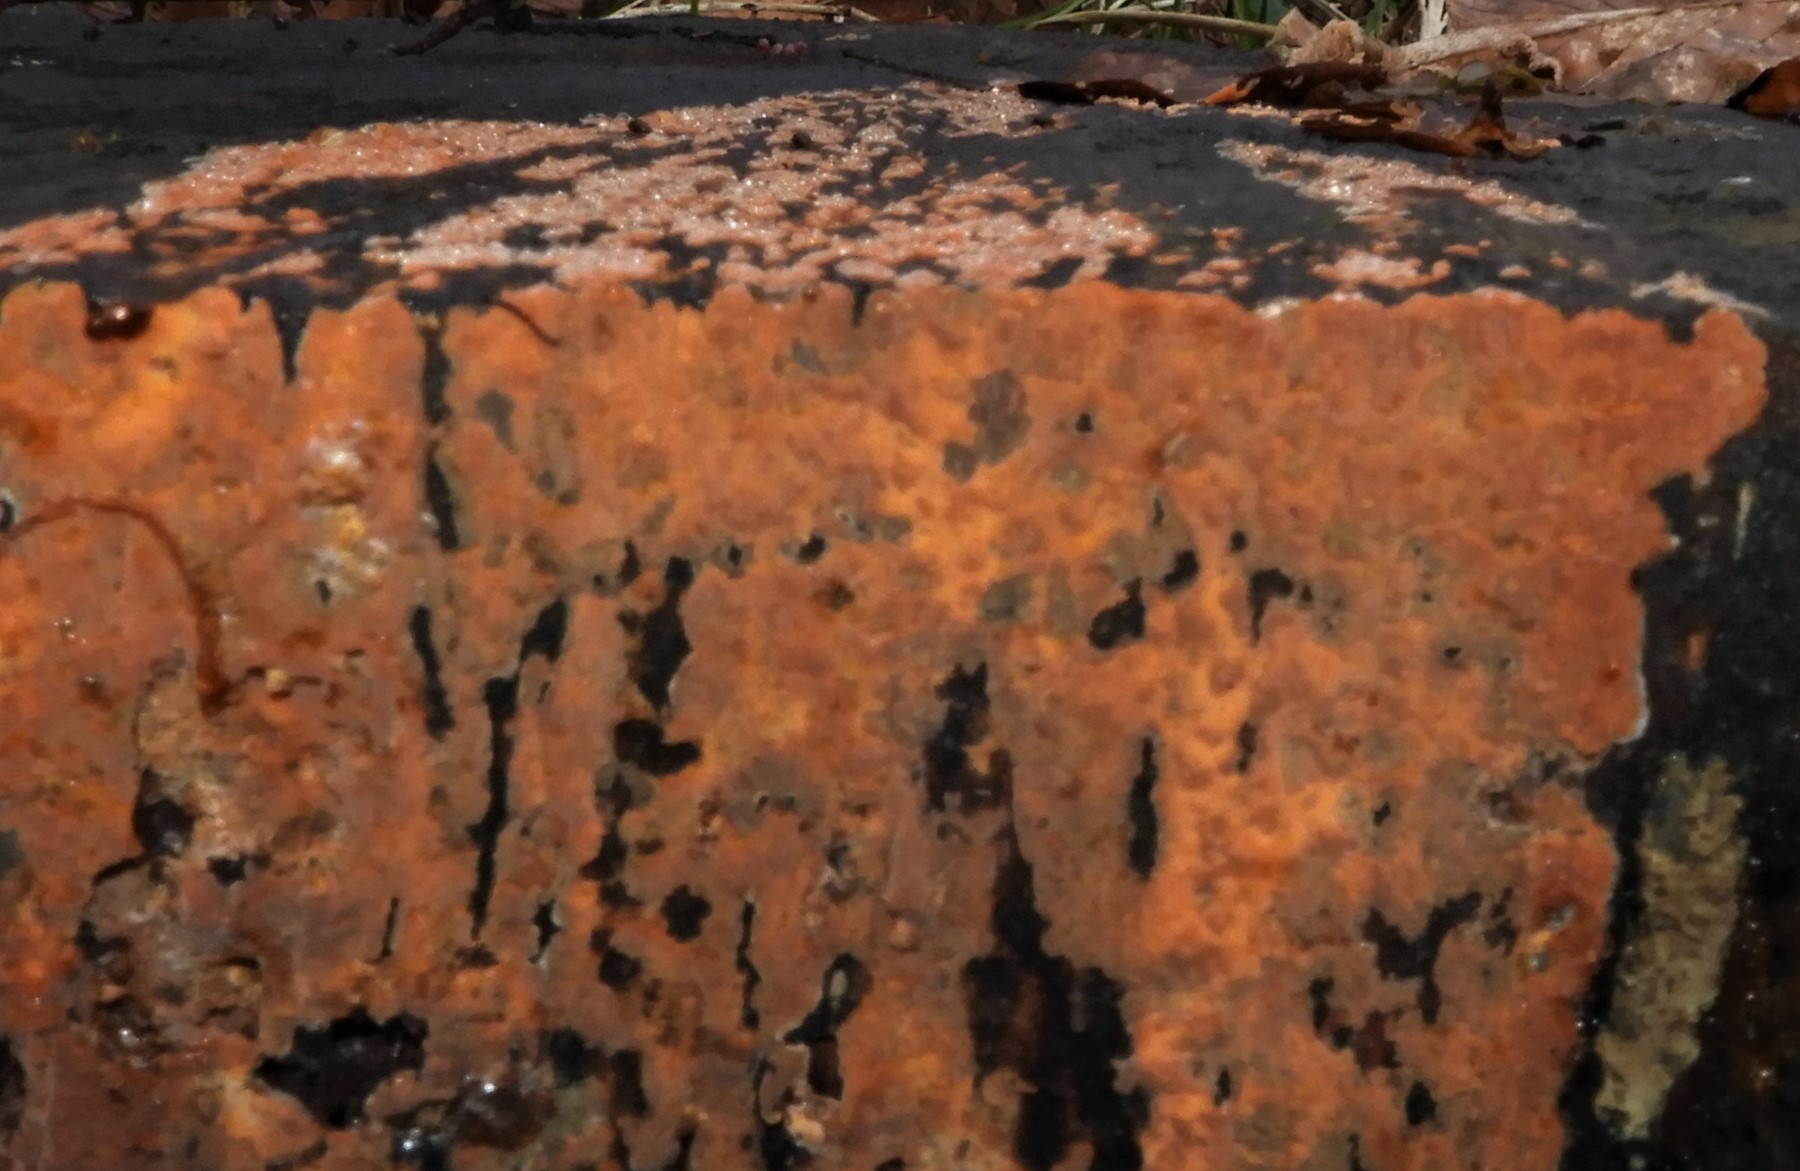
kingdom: Fungi
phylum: Basidiomycota
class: Agaricomycetes
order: Russulales
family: Peniophoraceae
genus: Peniophora
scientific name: Peniophora incarnata
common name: laksefarvet voksskind
